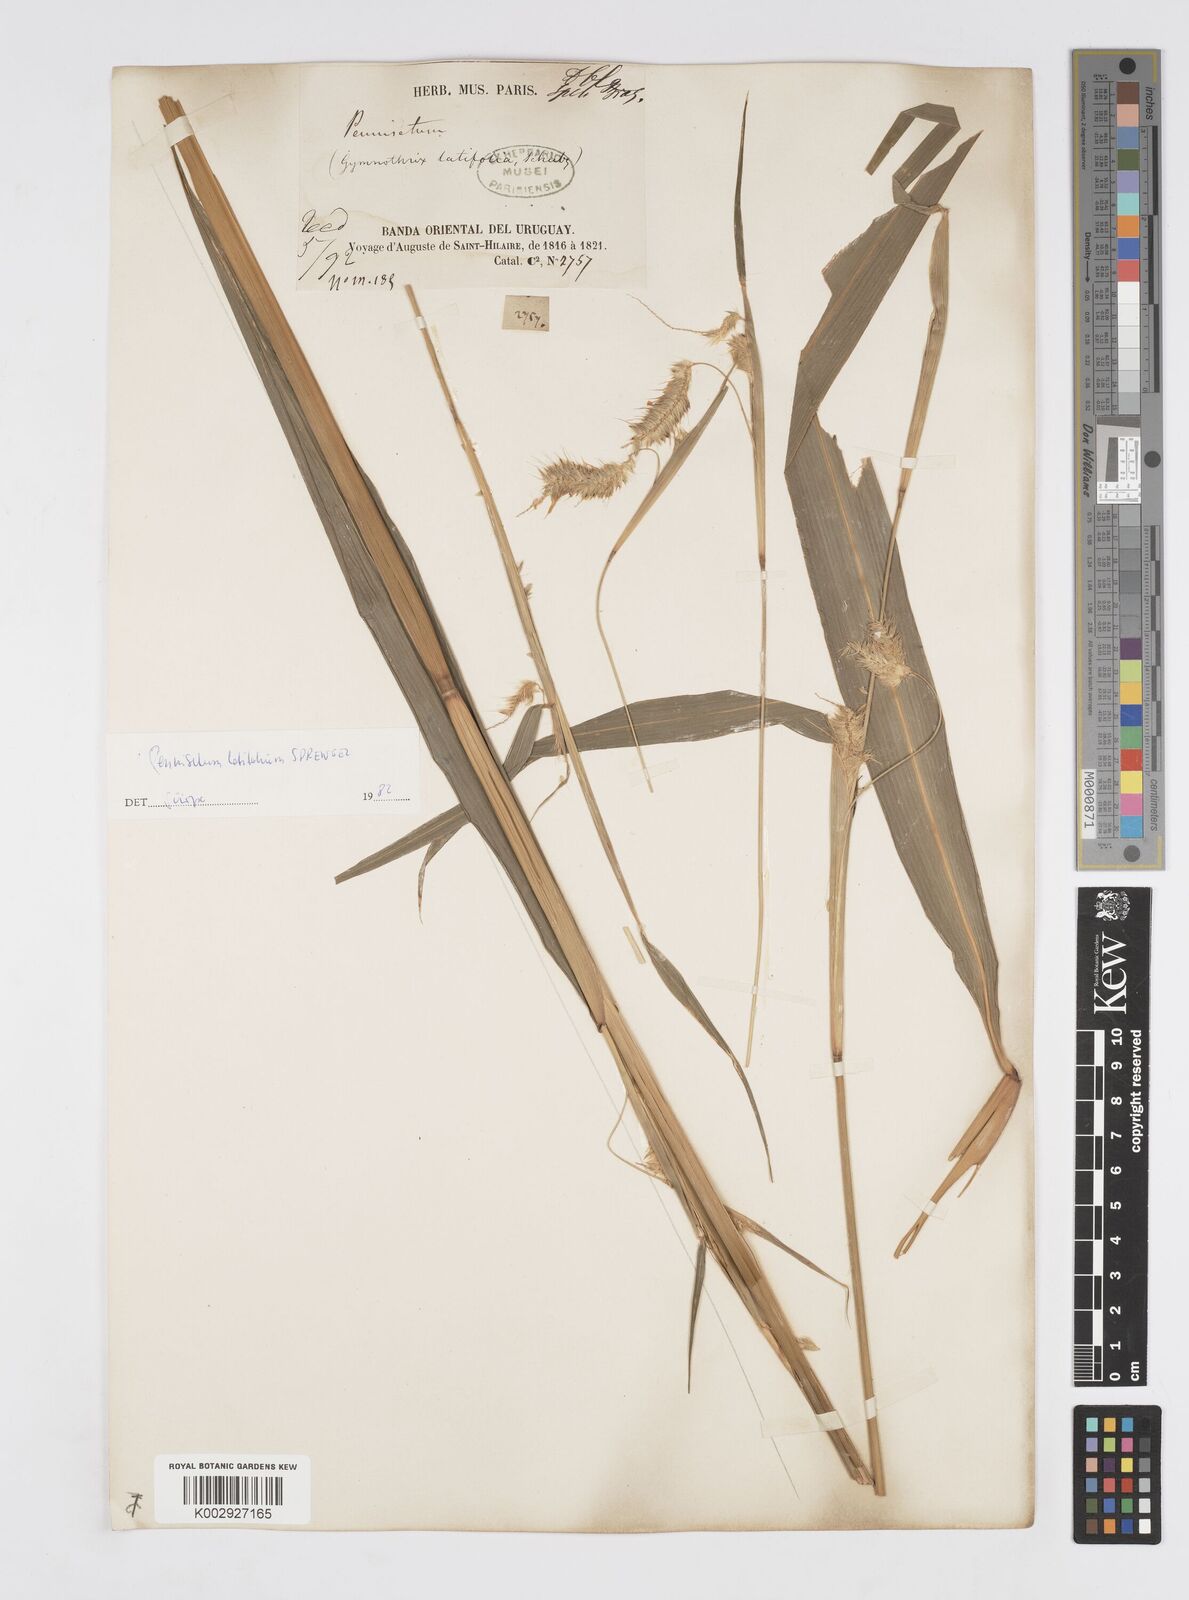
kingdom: Plantae
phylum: Tracheophyta
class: Liliopsida
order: Poales
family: Poaceae
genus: Cenchrus
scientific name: Cenchrus latifolius
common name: Sandbur
